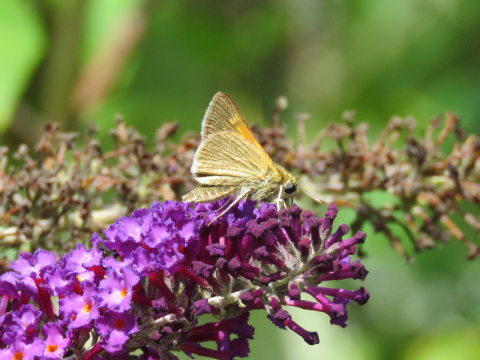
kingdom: Animalia
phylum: Arthropoda
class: Insecta
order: Lepidoptera
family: Hesperiidae
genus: Polites
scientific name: Polites themistocles
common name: Tawny-edged Skipper
